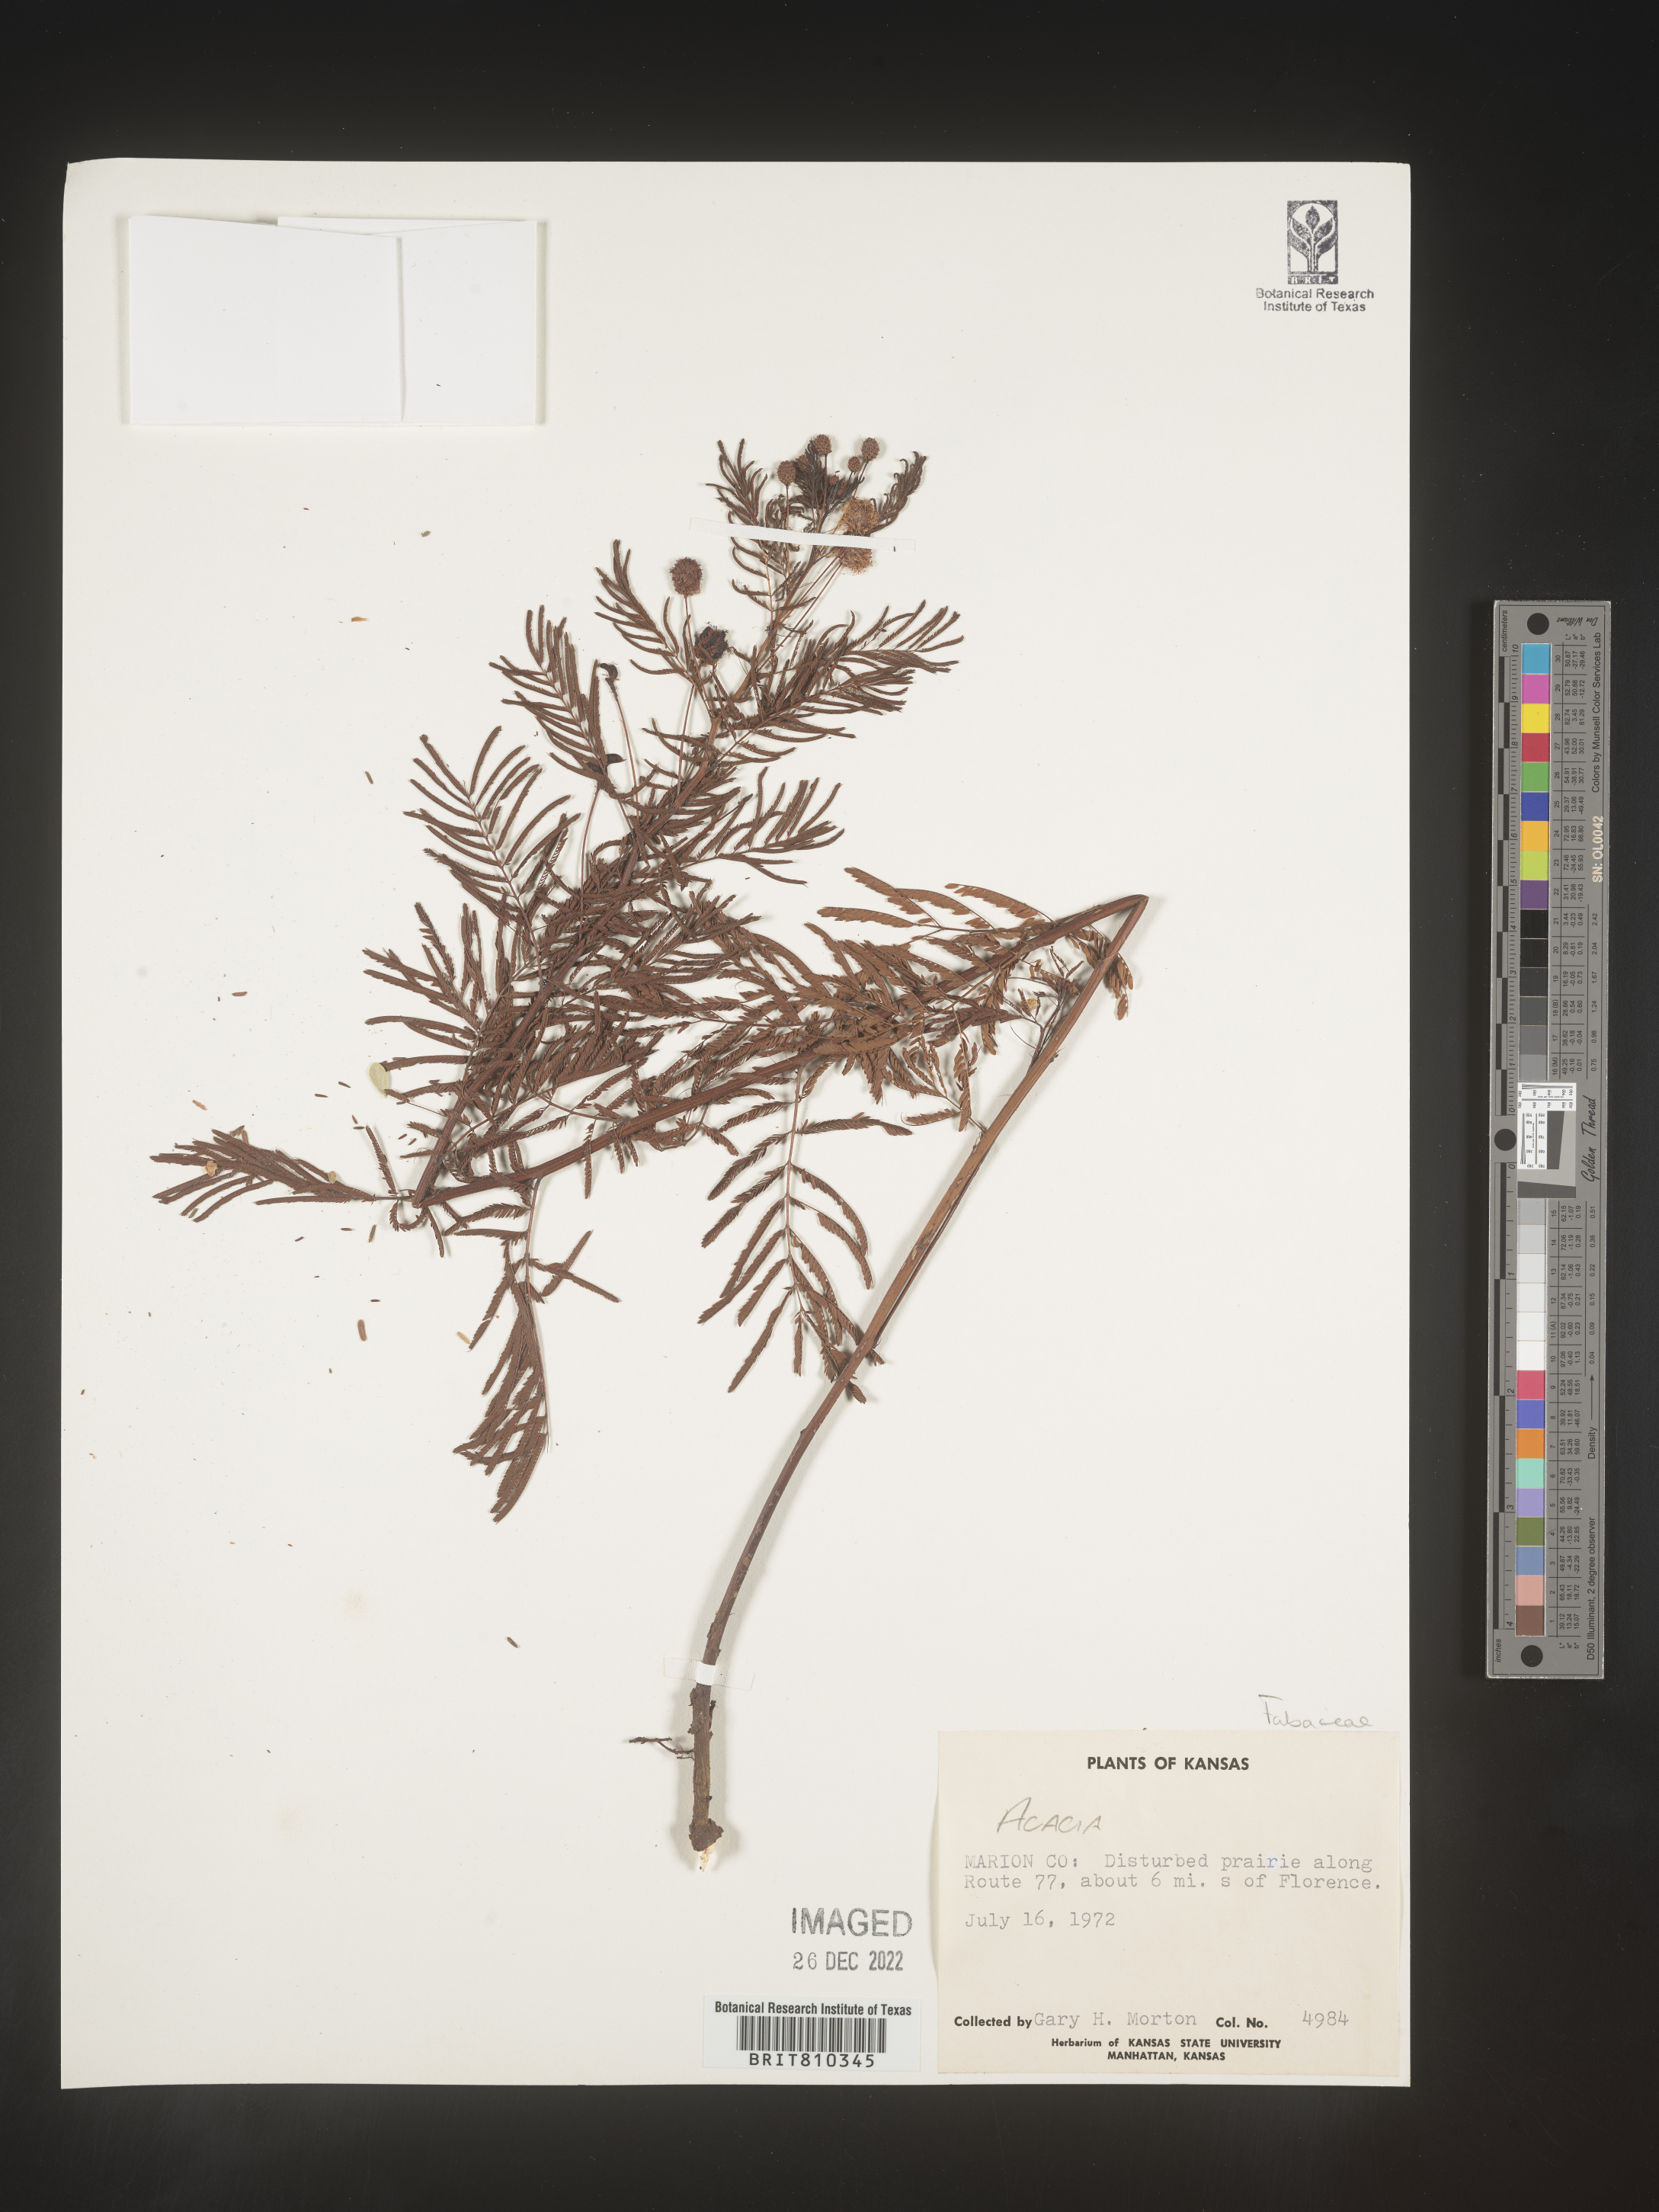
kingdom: Plantae
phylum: Tracheophyta
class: Magnoliopsida
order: Fabales
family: Fabaceae
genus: Acacia
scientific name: Acacia
